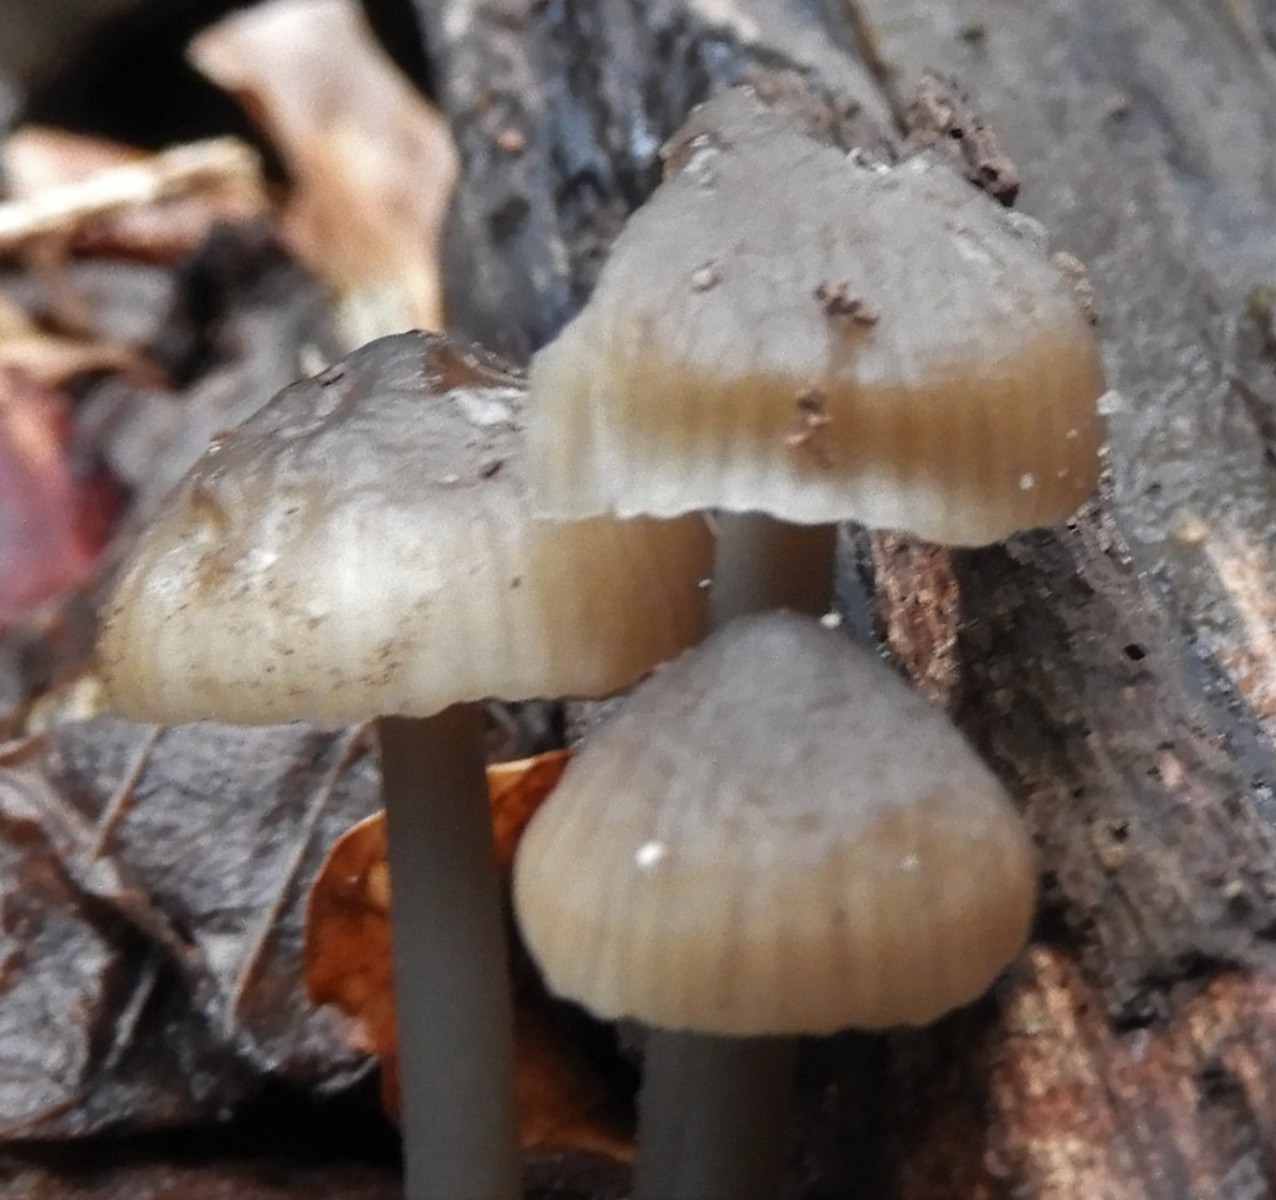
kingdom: Fungi
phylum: Basidiomycota
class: Agaricomycetes
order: Agaricales
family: Mycenaceae
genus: Mycena
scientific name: Mycena
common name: huesvamp
